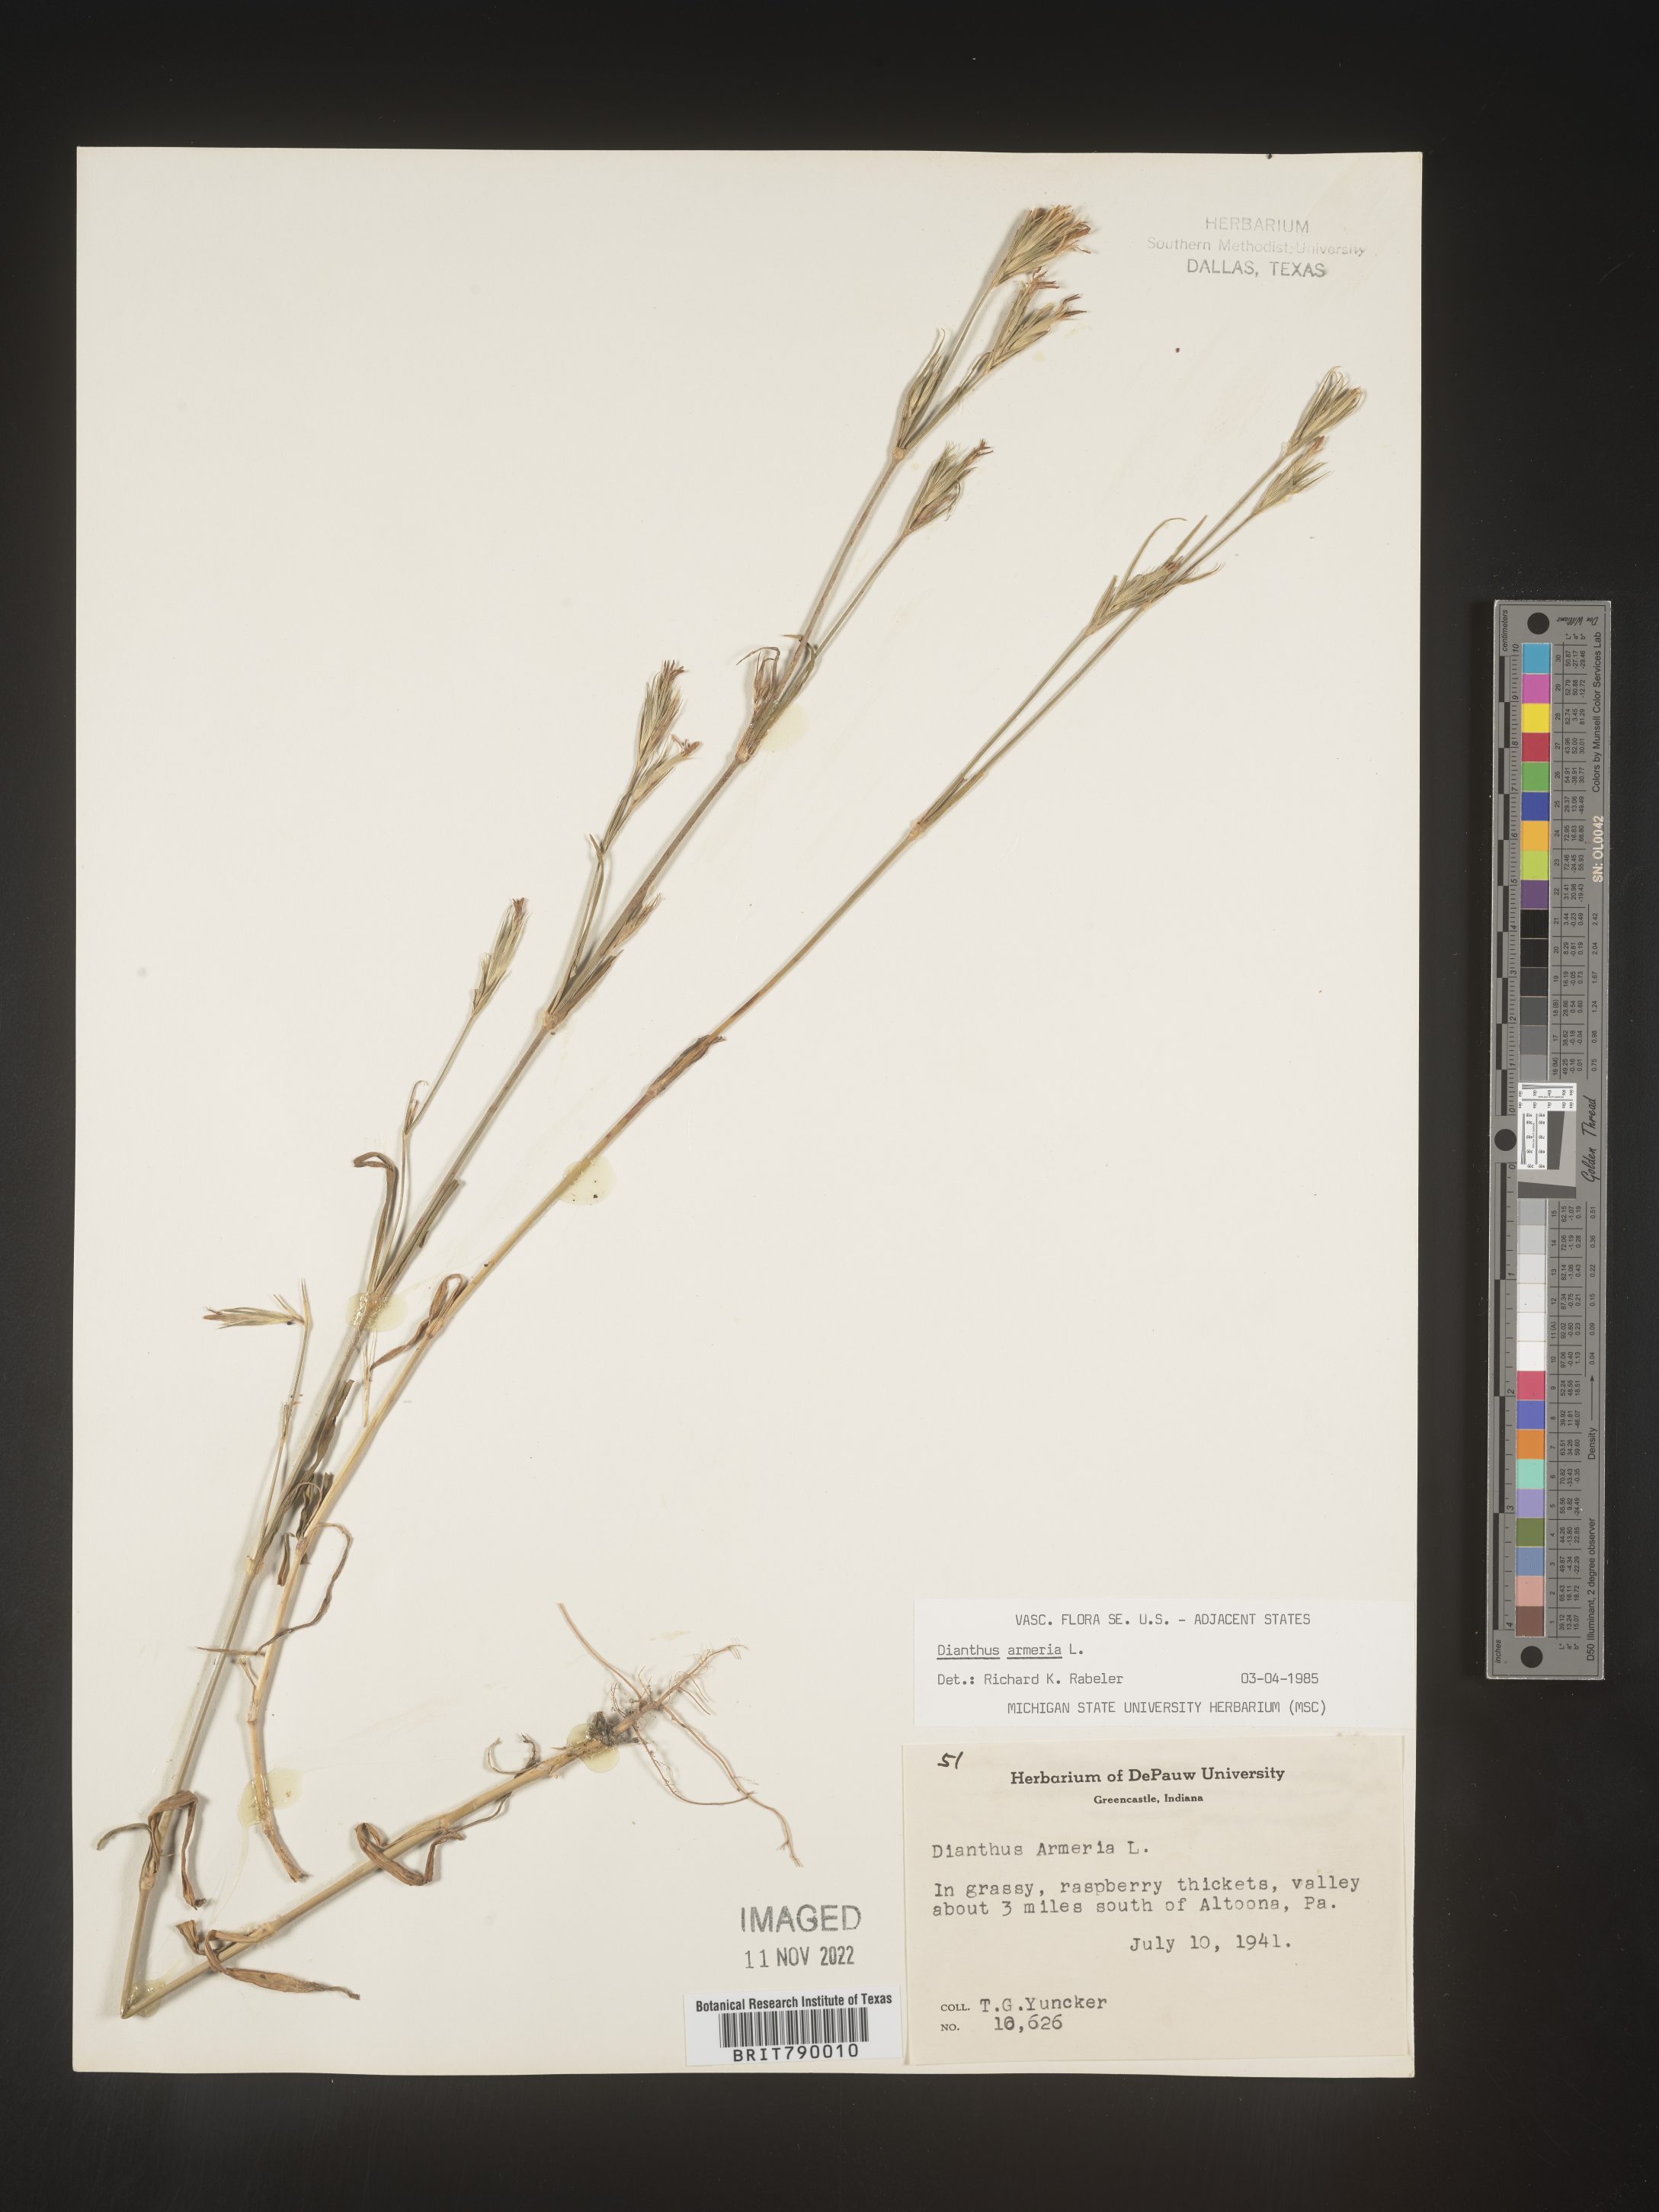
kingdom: Plantae
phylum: Tracheophyta
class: Magnoliopsida
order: Caryophyllales
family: Caryophyllaceae
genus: Dianthus
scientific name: Dianthus armeria
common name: Deptford pink
